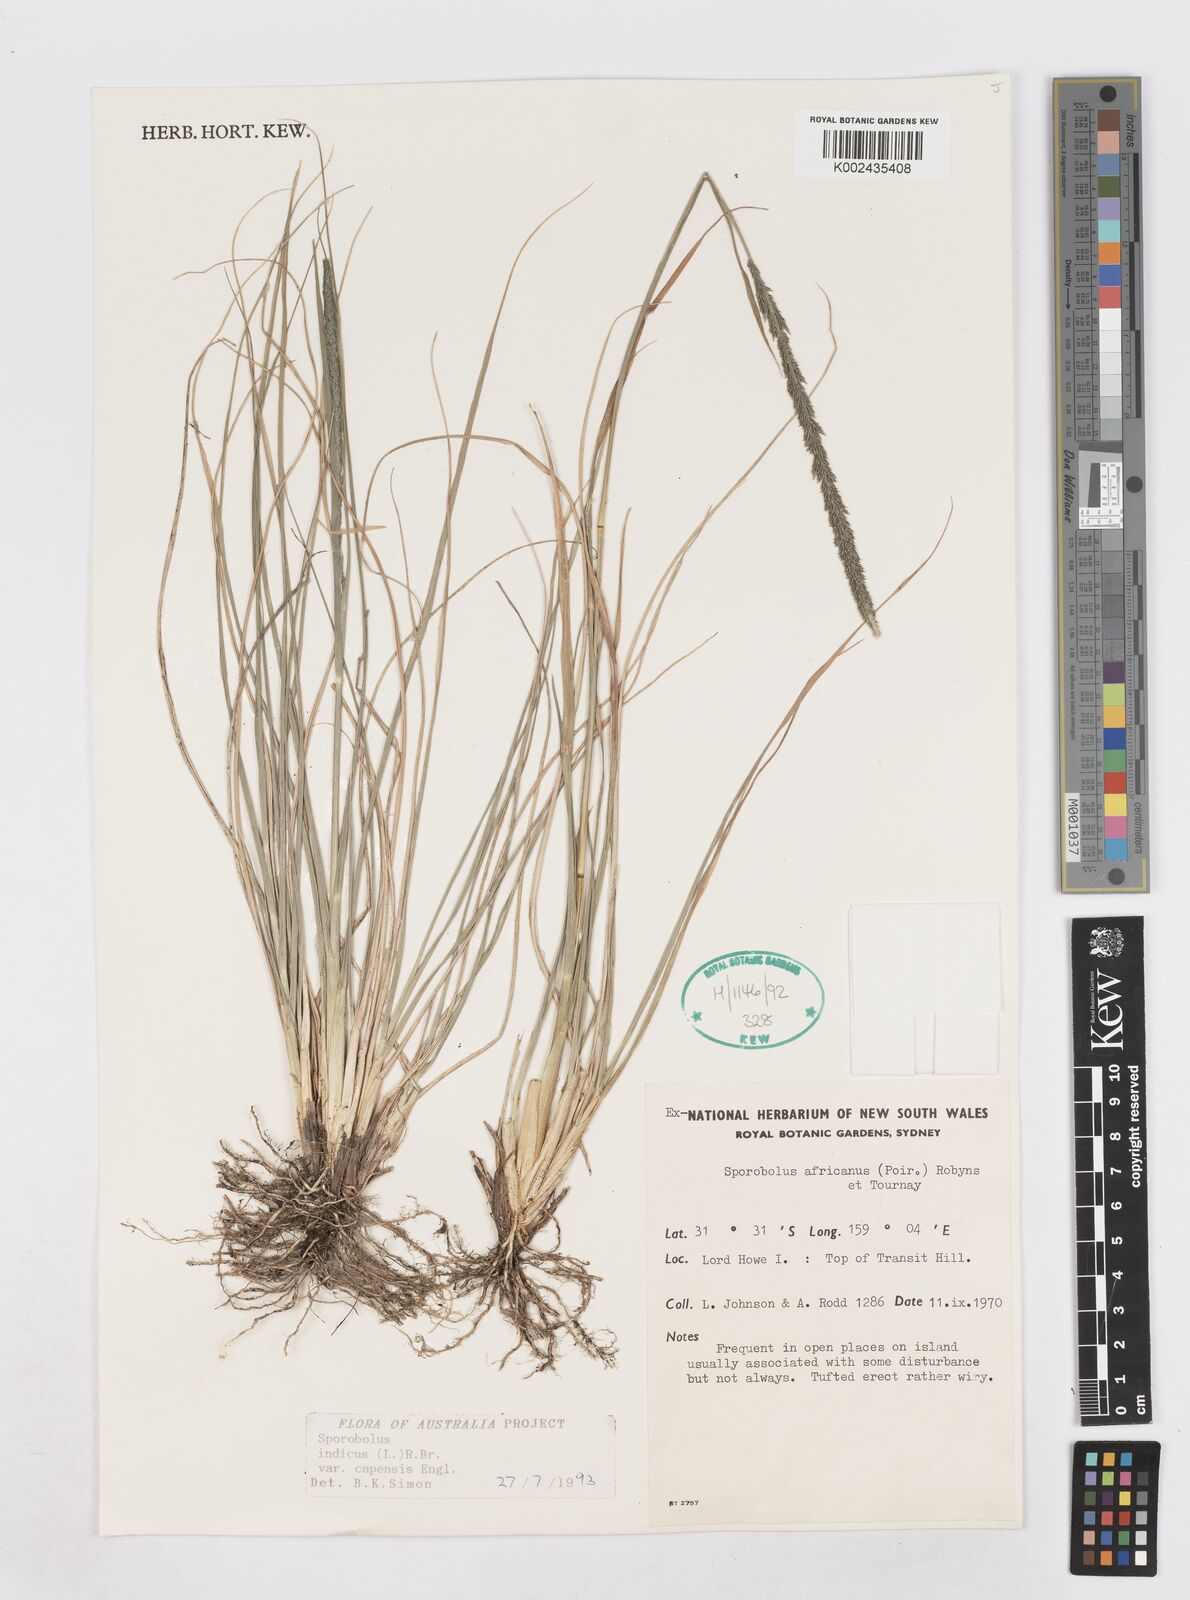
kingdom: Plantae
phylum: Tracheophyta
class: Liliopsida
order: Poales
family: Poaceae
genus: Sporobolus
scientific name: Sporobolus africanus
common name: African dropseed
